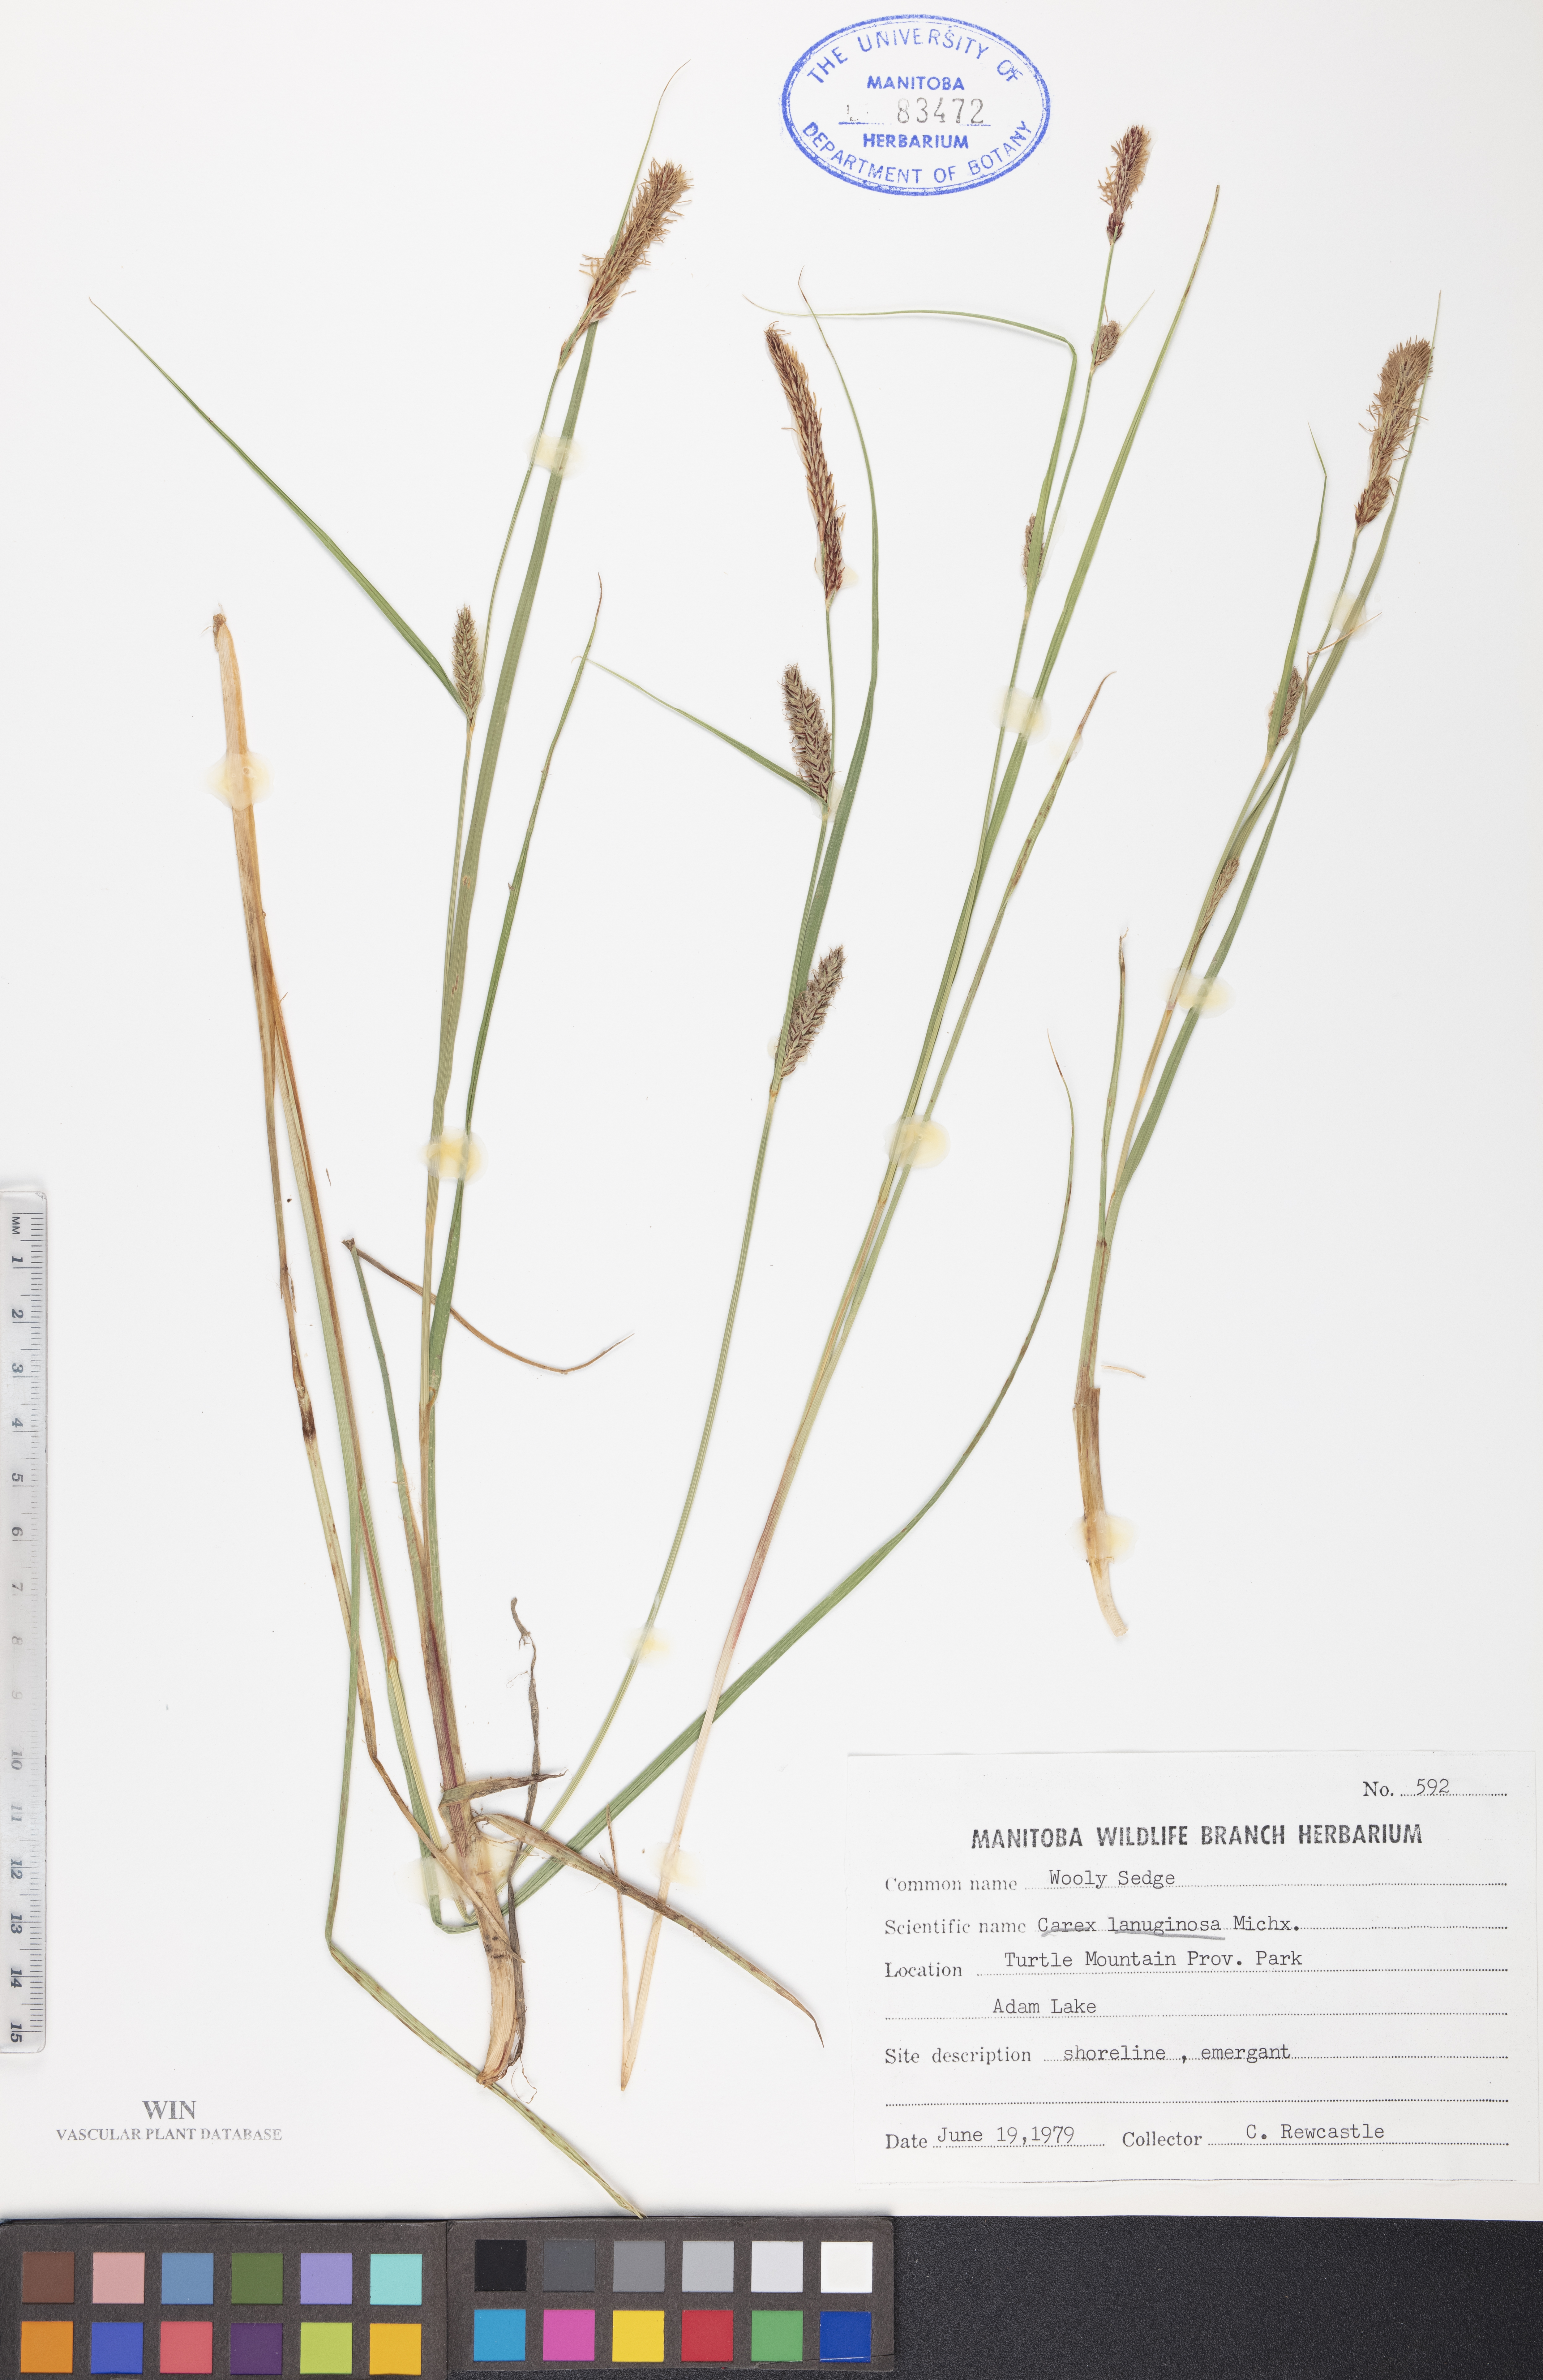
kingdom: Plantae
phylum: Tracheophyta
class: Liliopsida
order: Poales
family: Cyperaceae
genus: Carex
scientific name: Carex lasiocarpa
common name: Slender sedge
